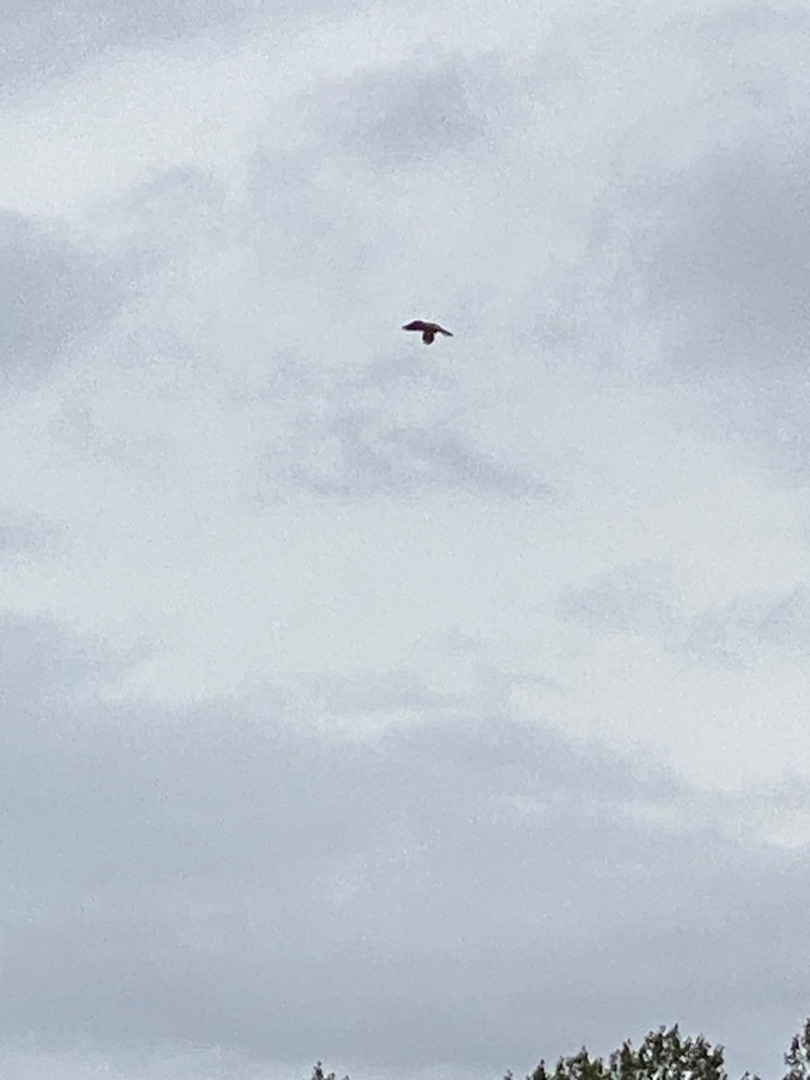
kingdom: Animalia
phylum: Chordata
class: Aves
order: Falconiformes
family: Falconidae
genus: Falco
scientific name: Falco tinnunculus
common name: Tårnfalk
